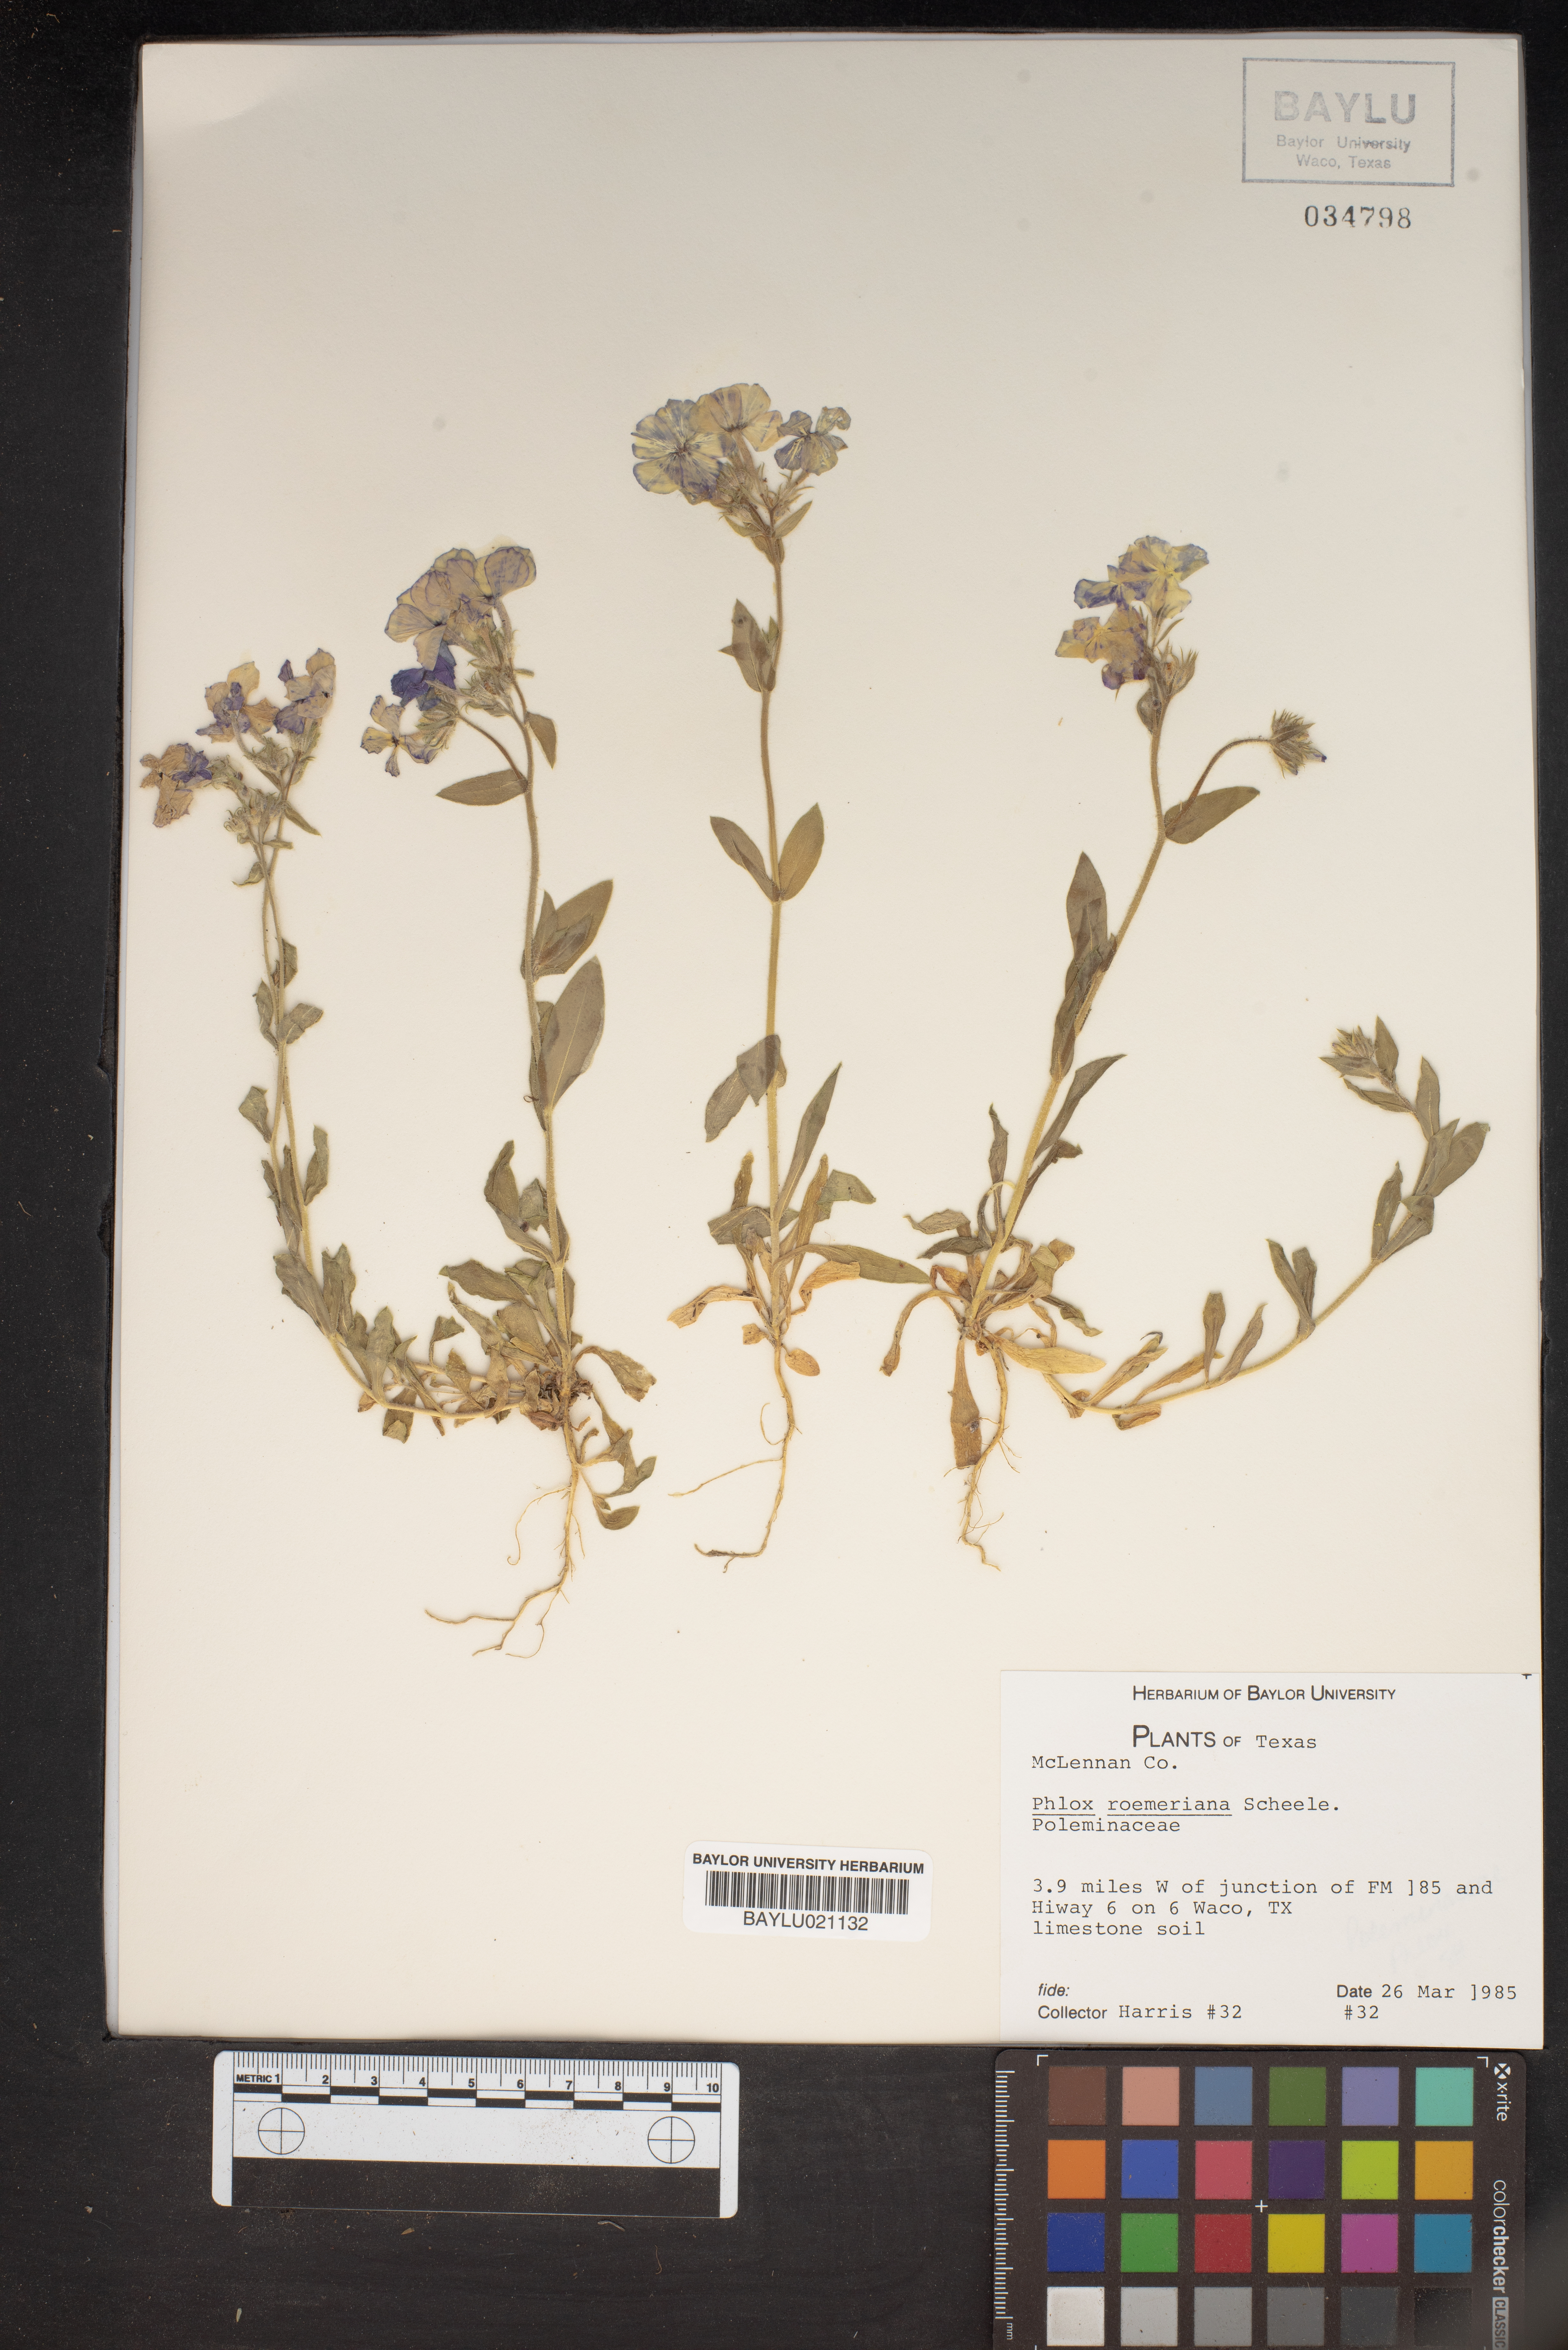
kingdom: Plantae
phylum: Tracheophyta
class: Magnoliopsida
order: Ericales
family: Polemoniaceae
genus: Phlox
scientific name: Phlox roemeriana
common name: Roemer's phlox
